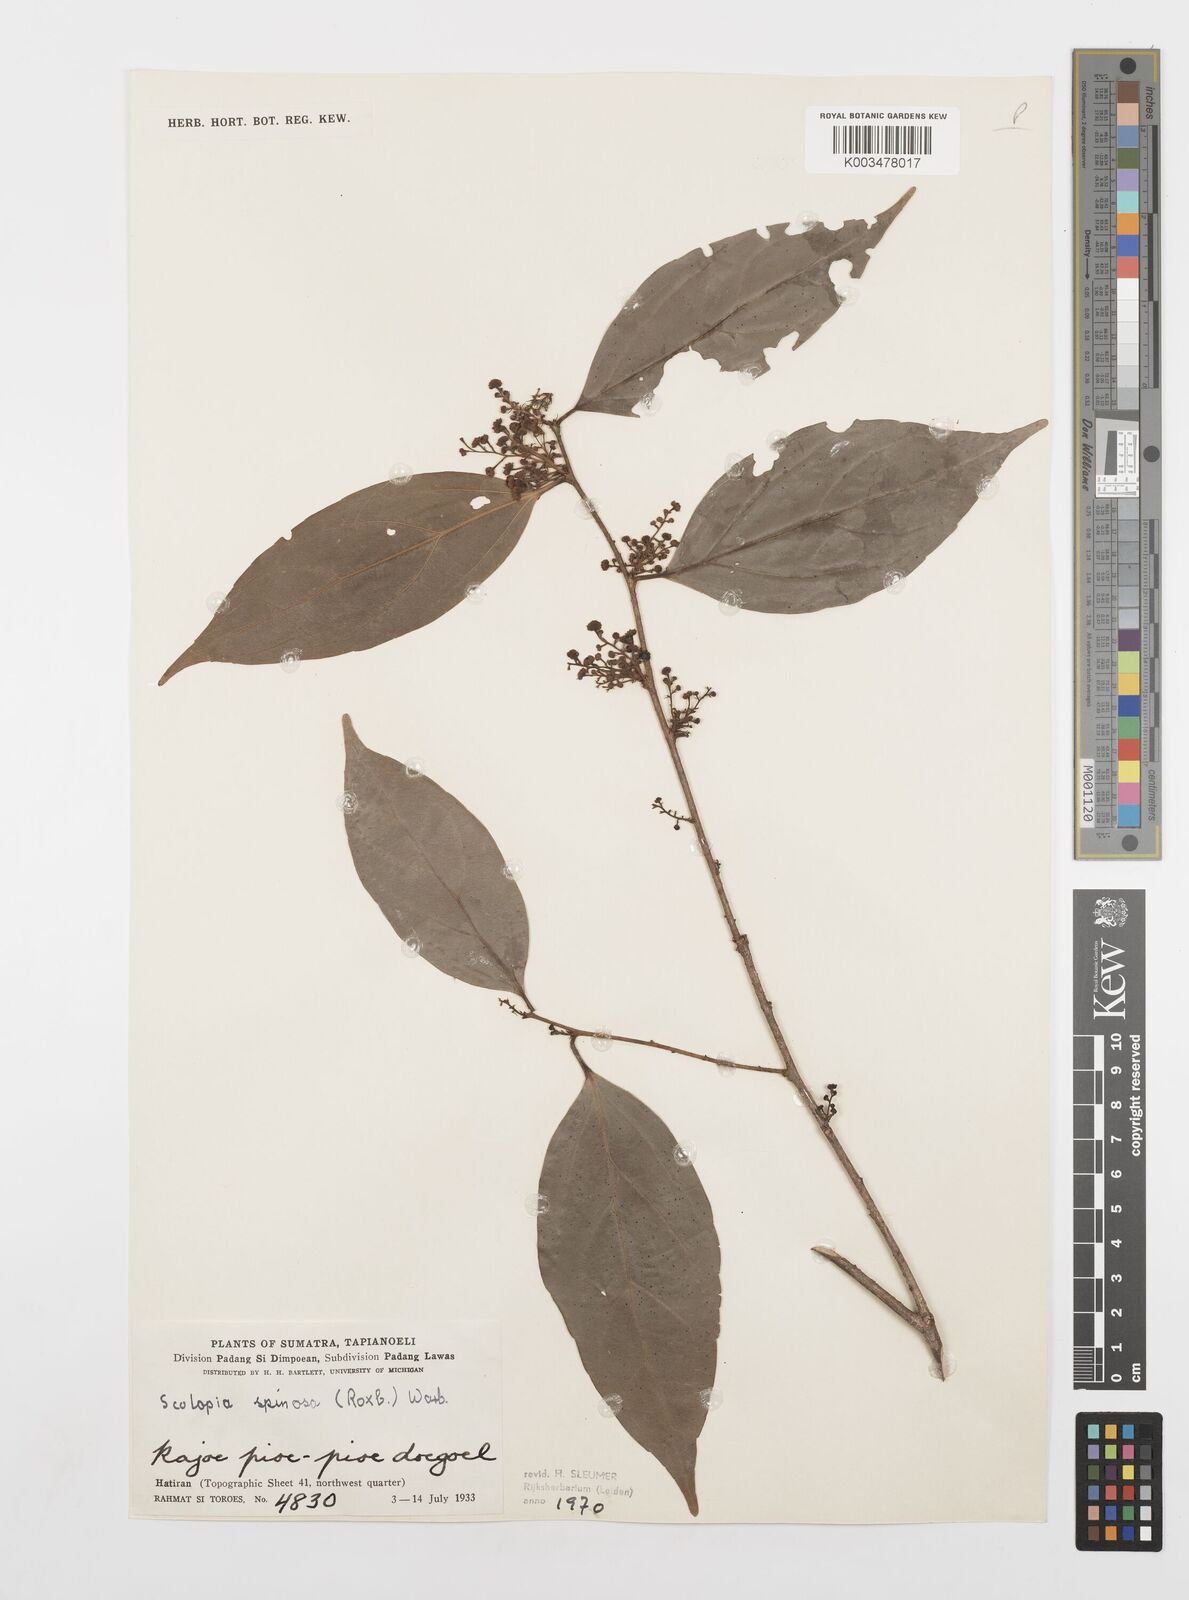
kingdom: Plantae
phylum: Tracheophyta
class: Magnoliopsida
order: Malpighiales
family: Salicaceae
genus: Scolopia
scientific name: Scolopia spinosa
